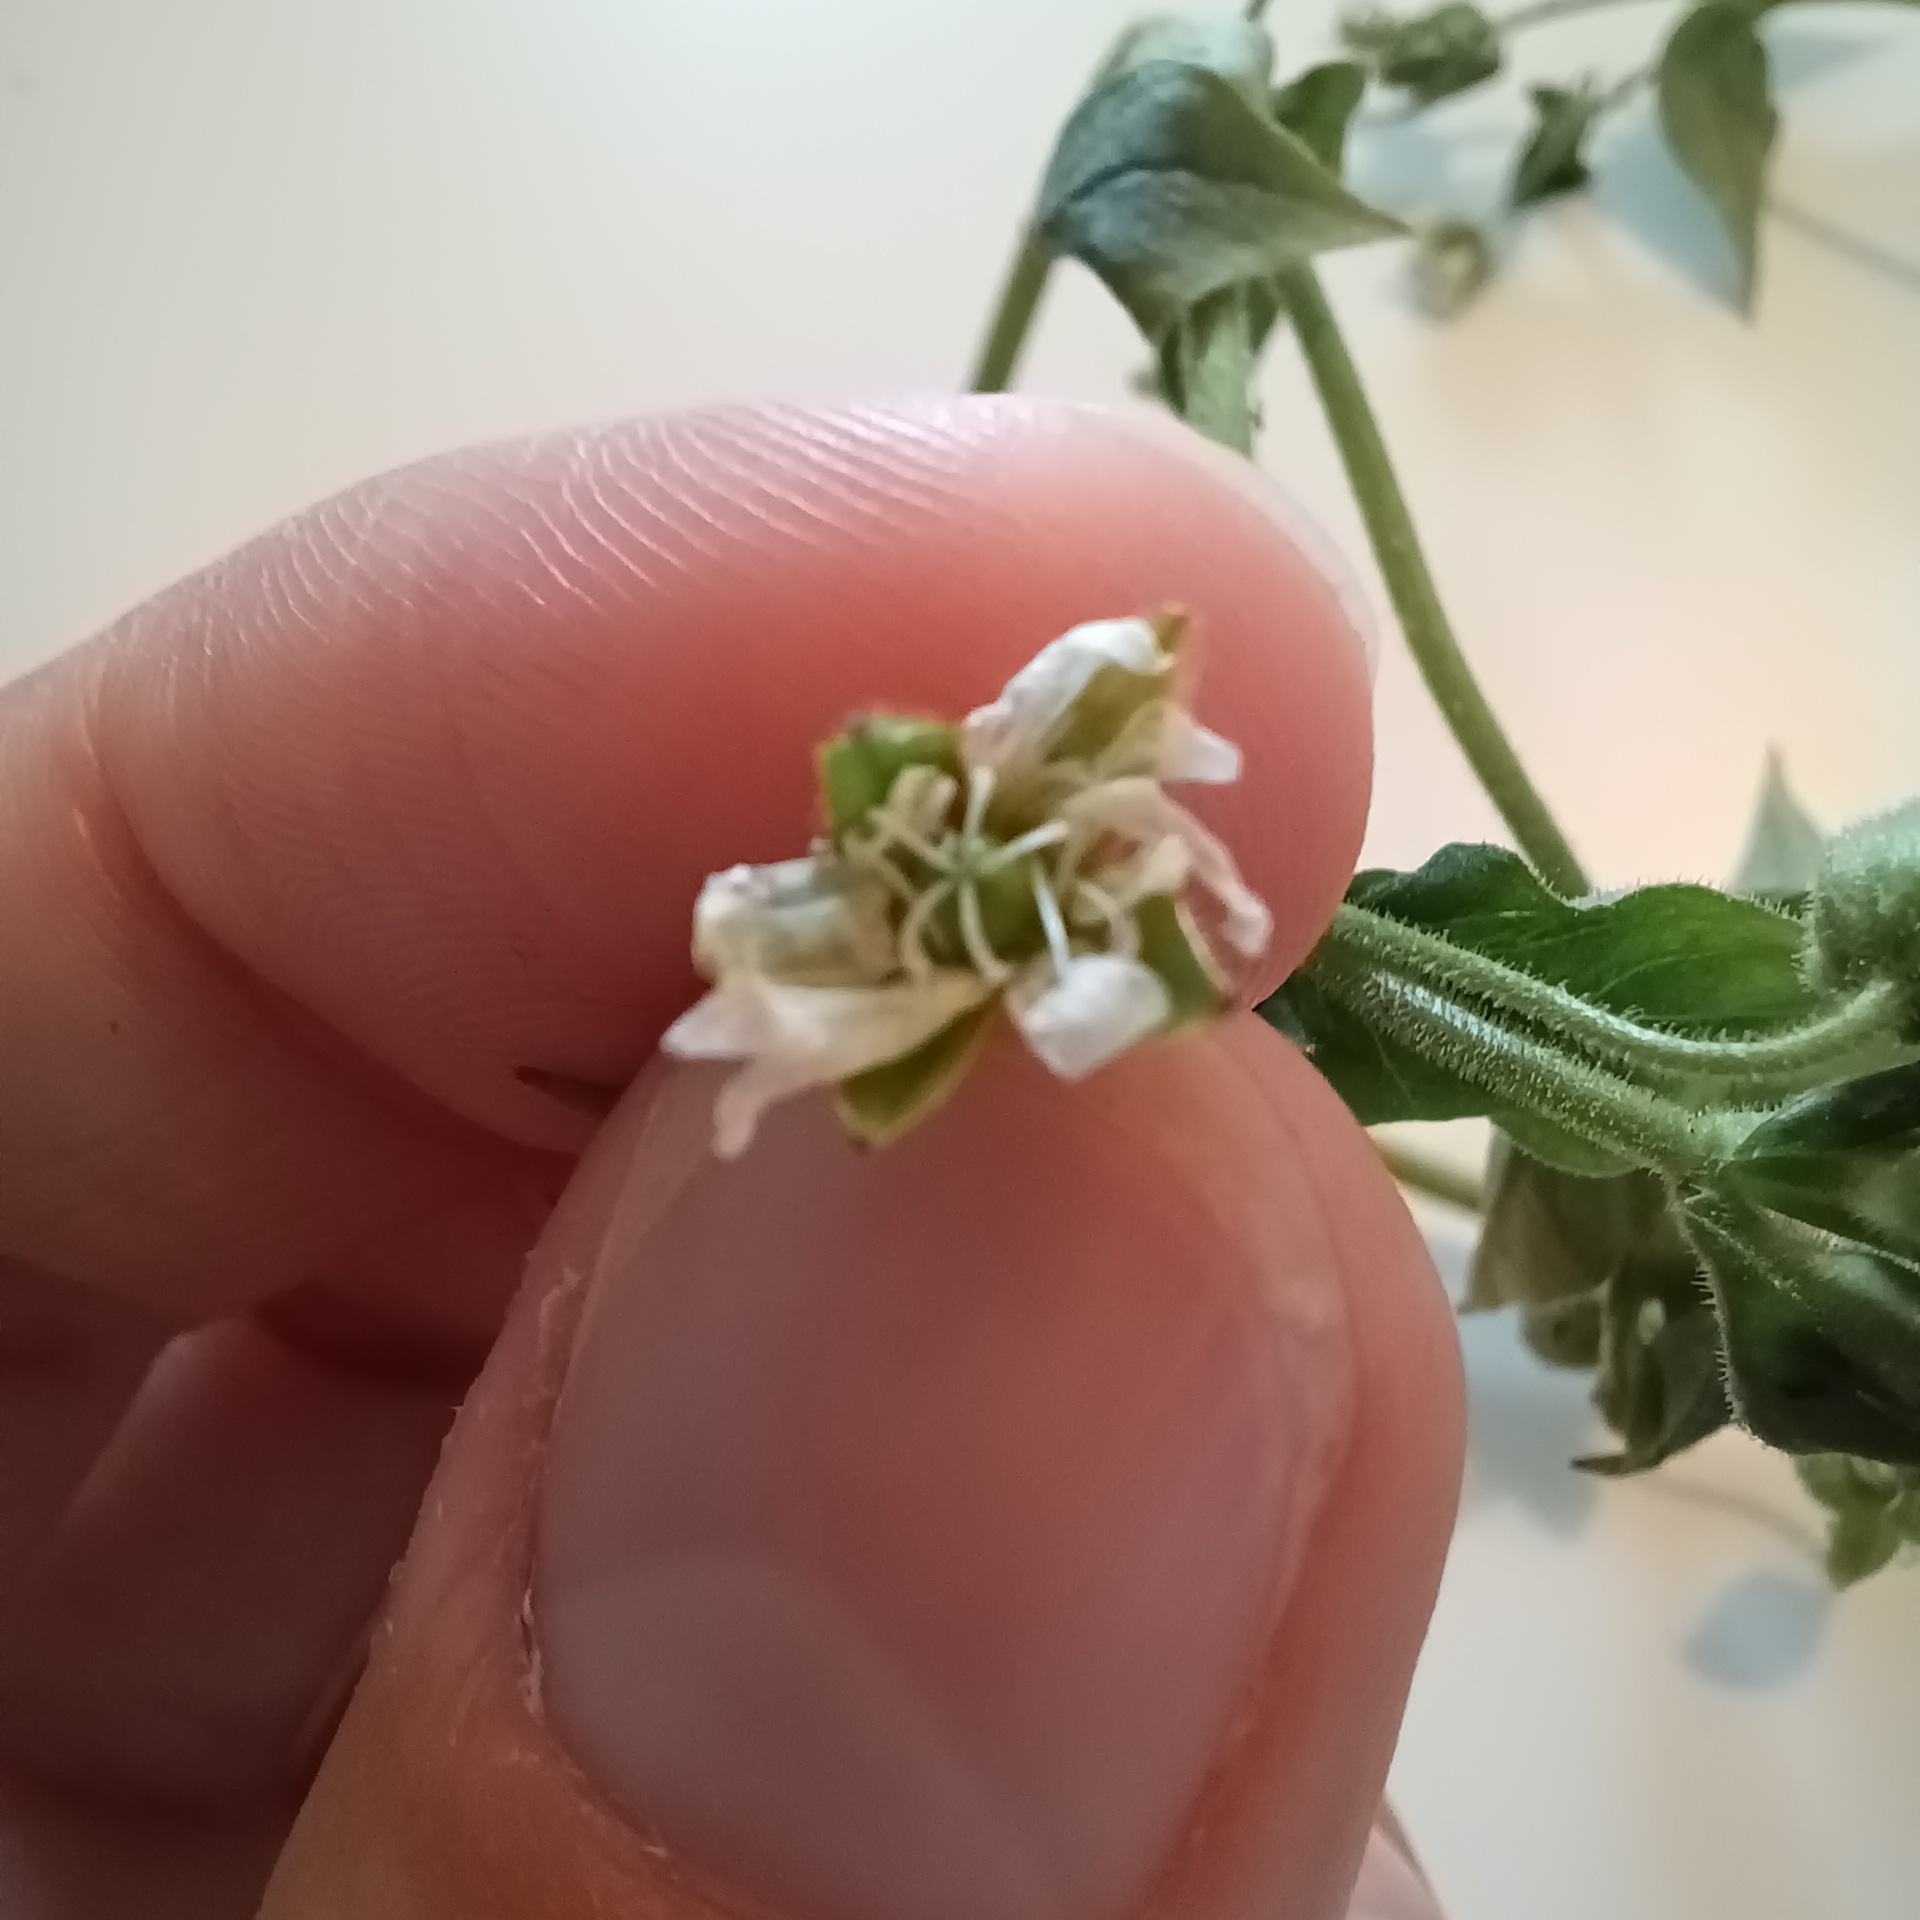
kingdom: Plantae
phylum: Tracheophyta
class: Magnoliopsida
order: Caryophyllales
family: Caryophyllaceae
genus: Stellaria
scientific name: Stellaria aquatica
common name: Kløvkrone
